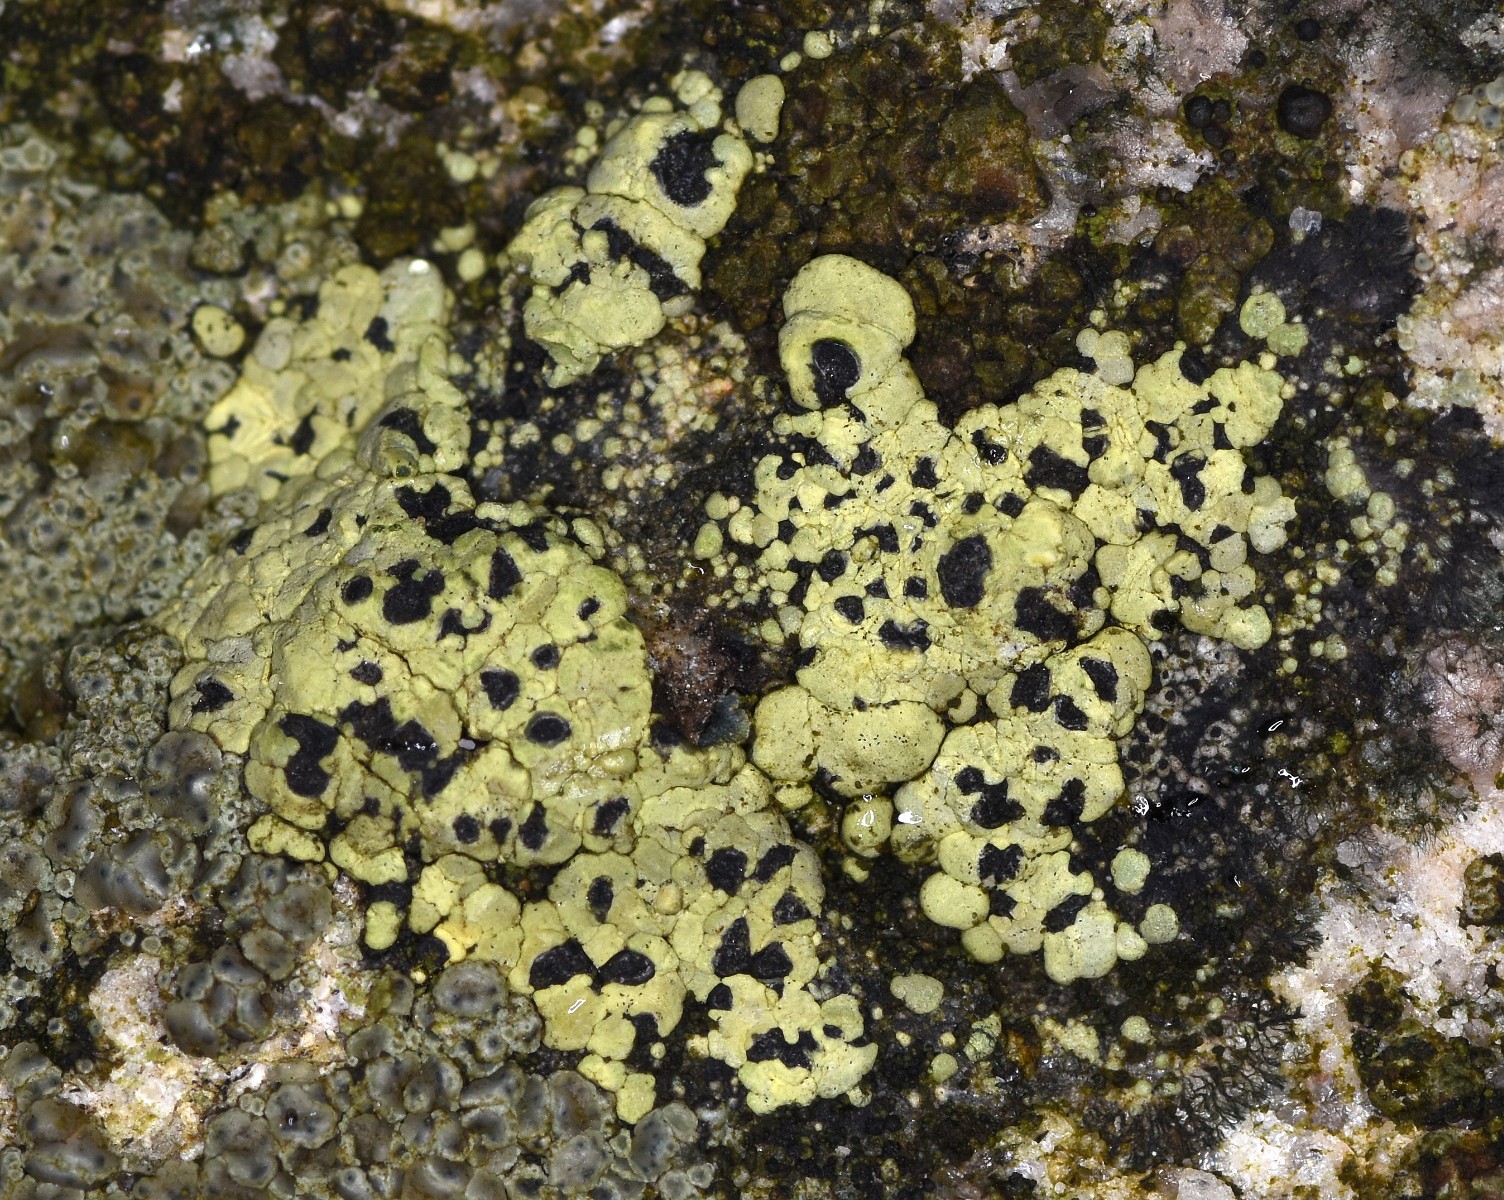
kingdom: Fungi
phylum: Ascomycota
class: Lecanoromycetes
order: Rhizocarpales
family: Rhizocarpaceae
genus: Rhizocarpon
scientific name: Rhizocarpon lecanorinum
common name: krave-landkortlav
